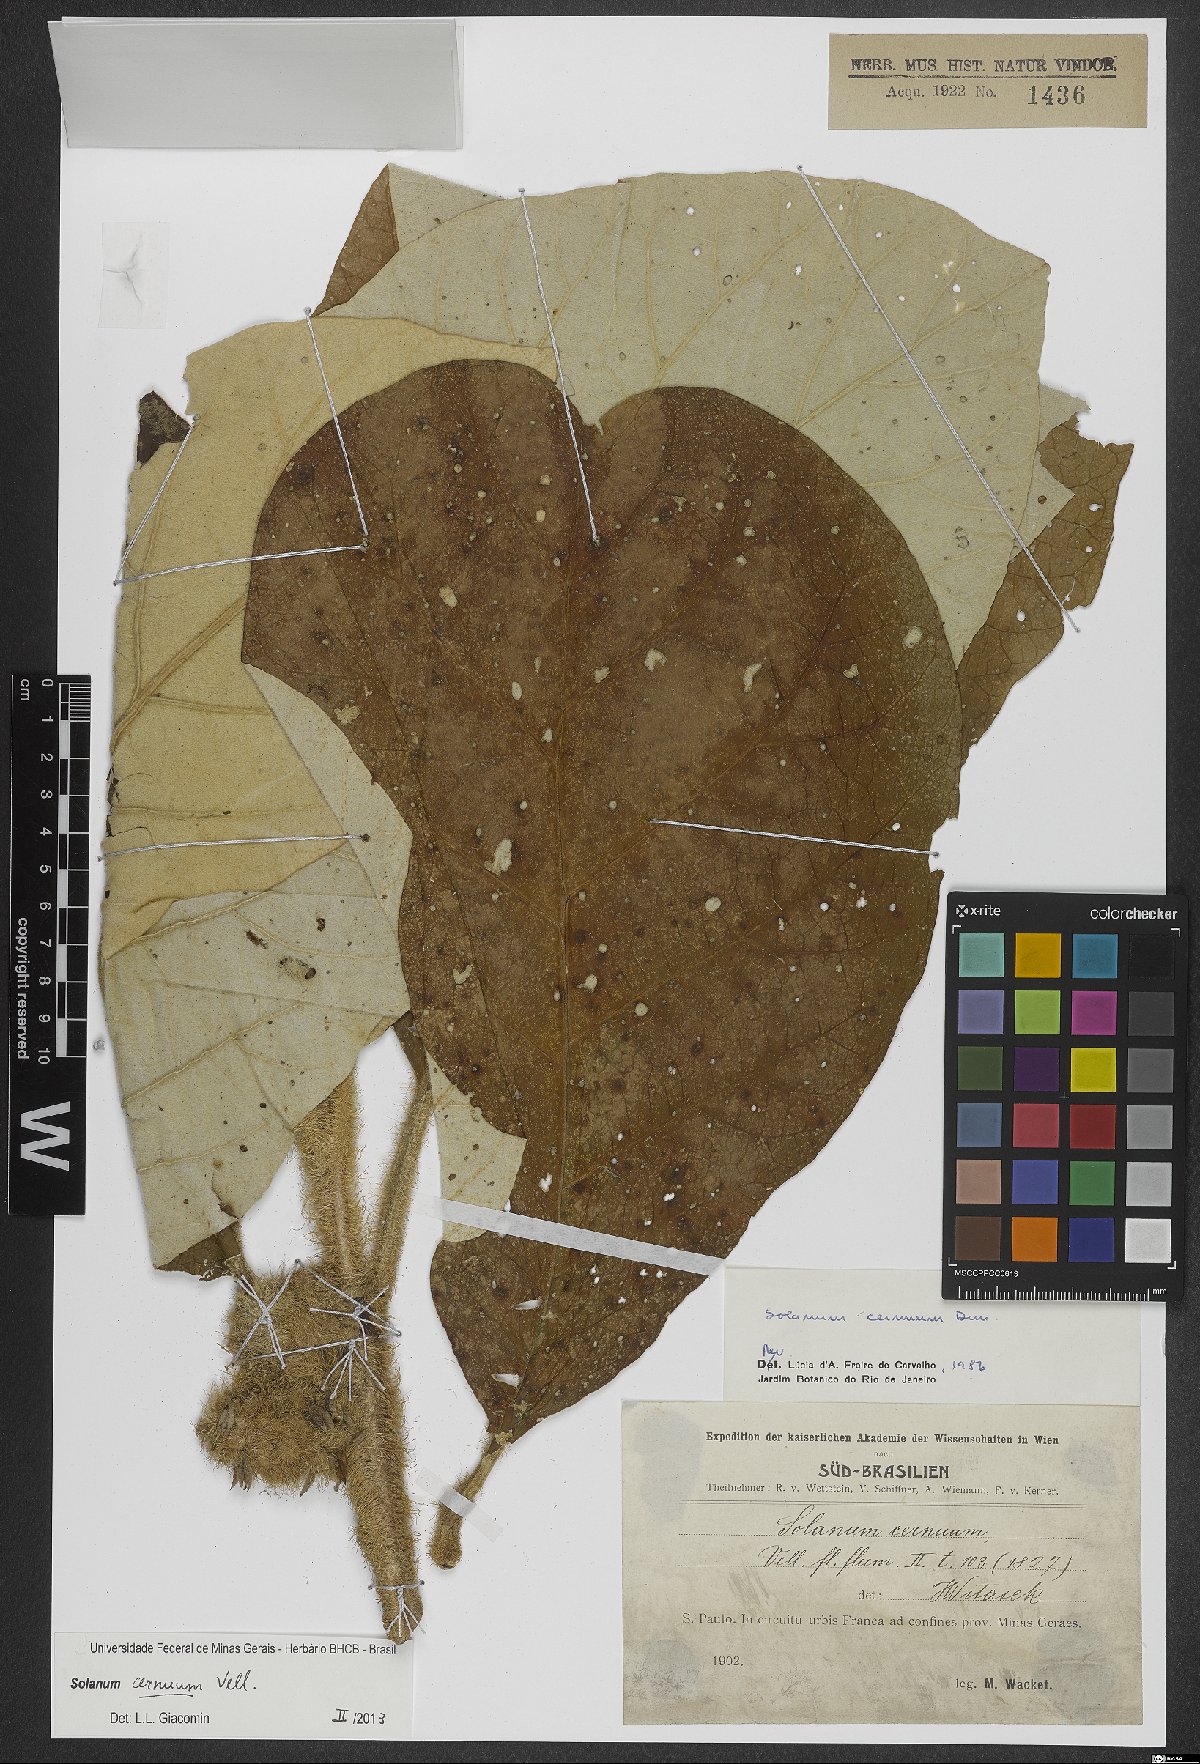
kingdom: Plantae
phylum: Tracheophyta
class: Magnoliopsida
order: Solanales
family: Solanaceae
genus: Solanum
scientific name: Solanum cernuum
